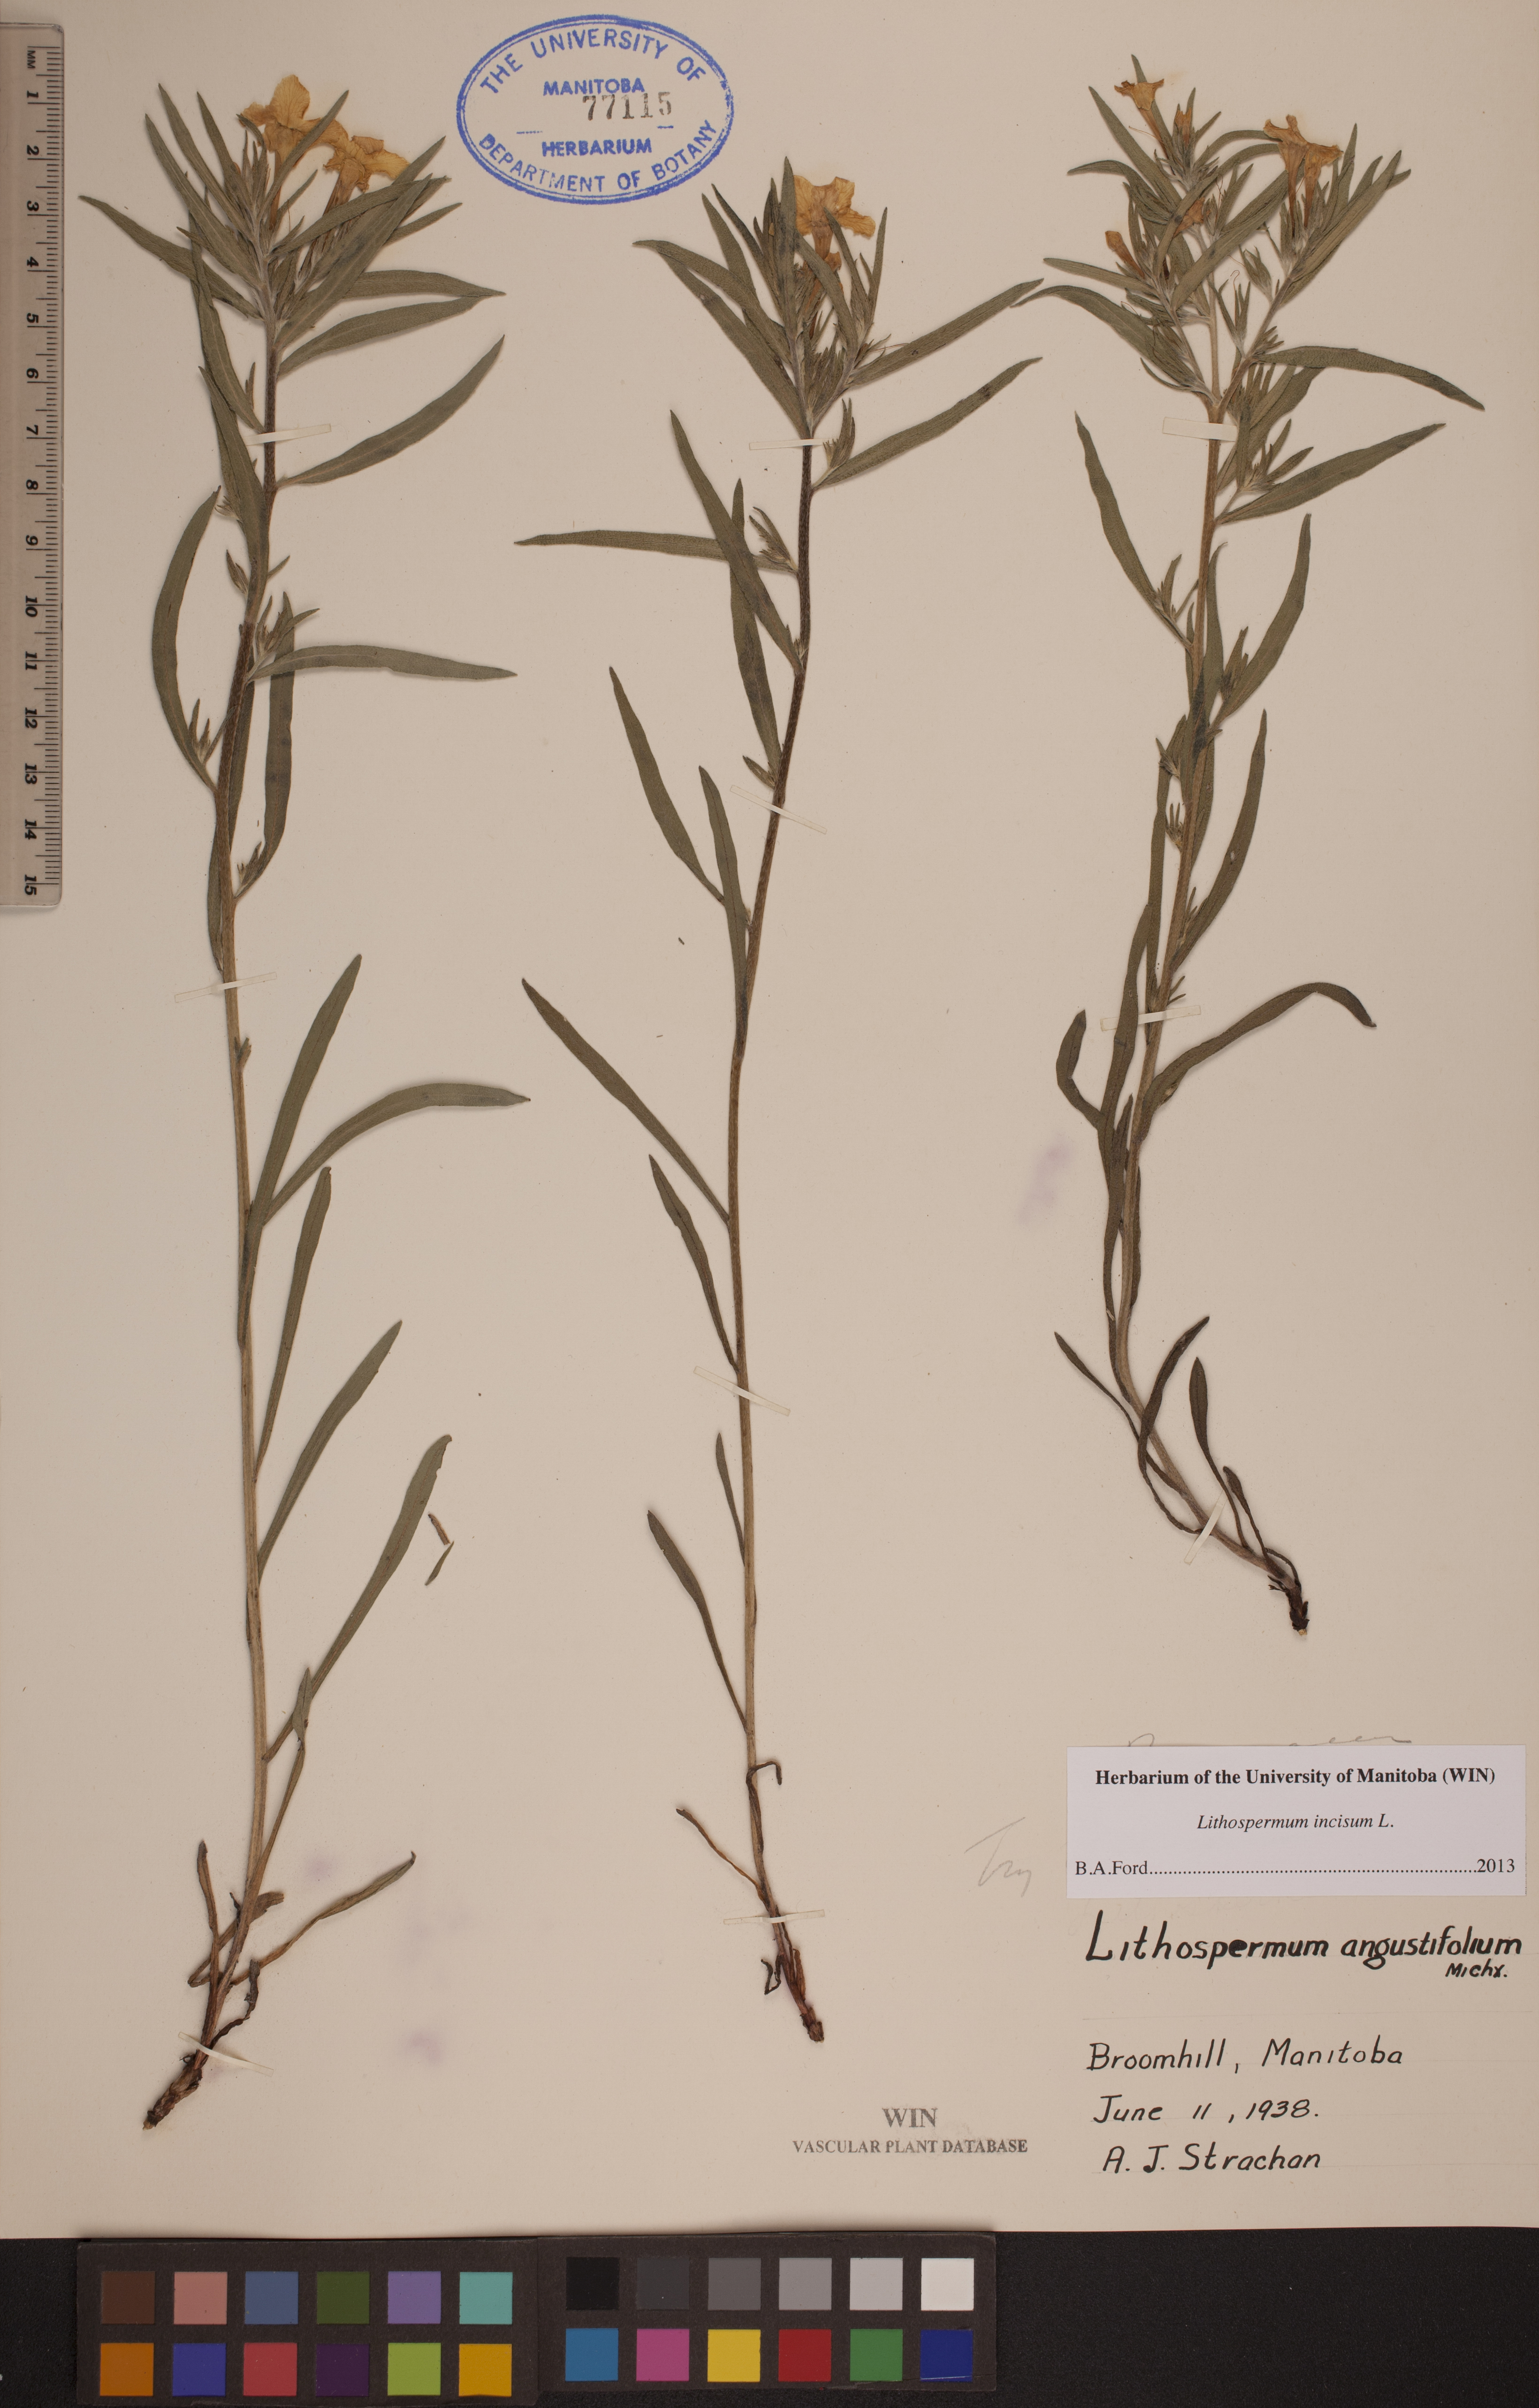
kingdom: Plantae
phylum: Tracheophyta
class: Magnoliopsida
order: Boraginales
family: Boraginaceae
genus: Lithospermum
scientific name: Lithospermum incisum
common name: Fringed gromwell
